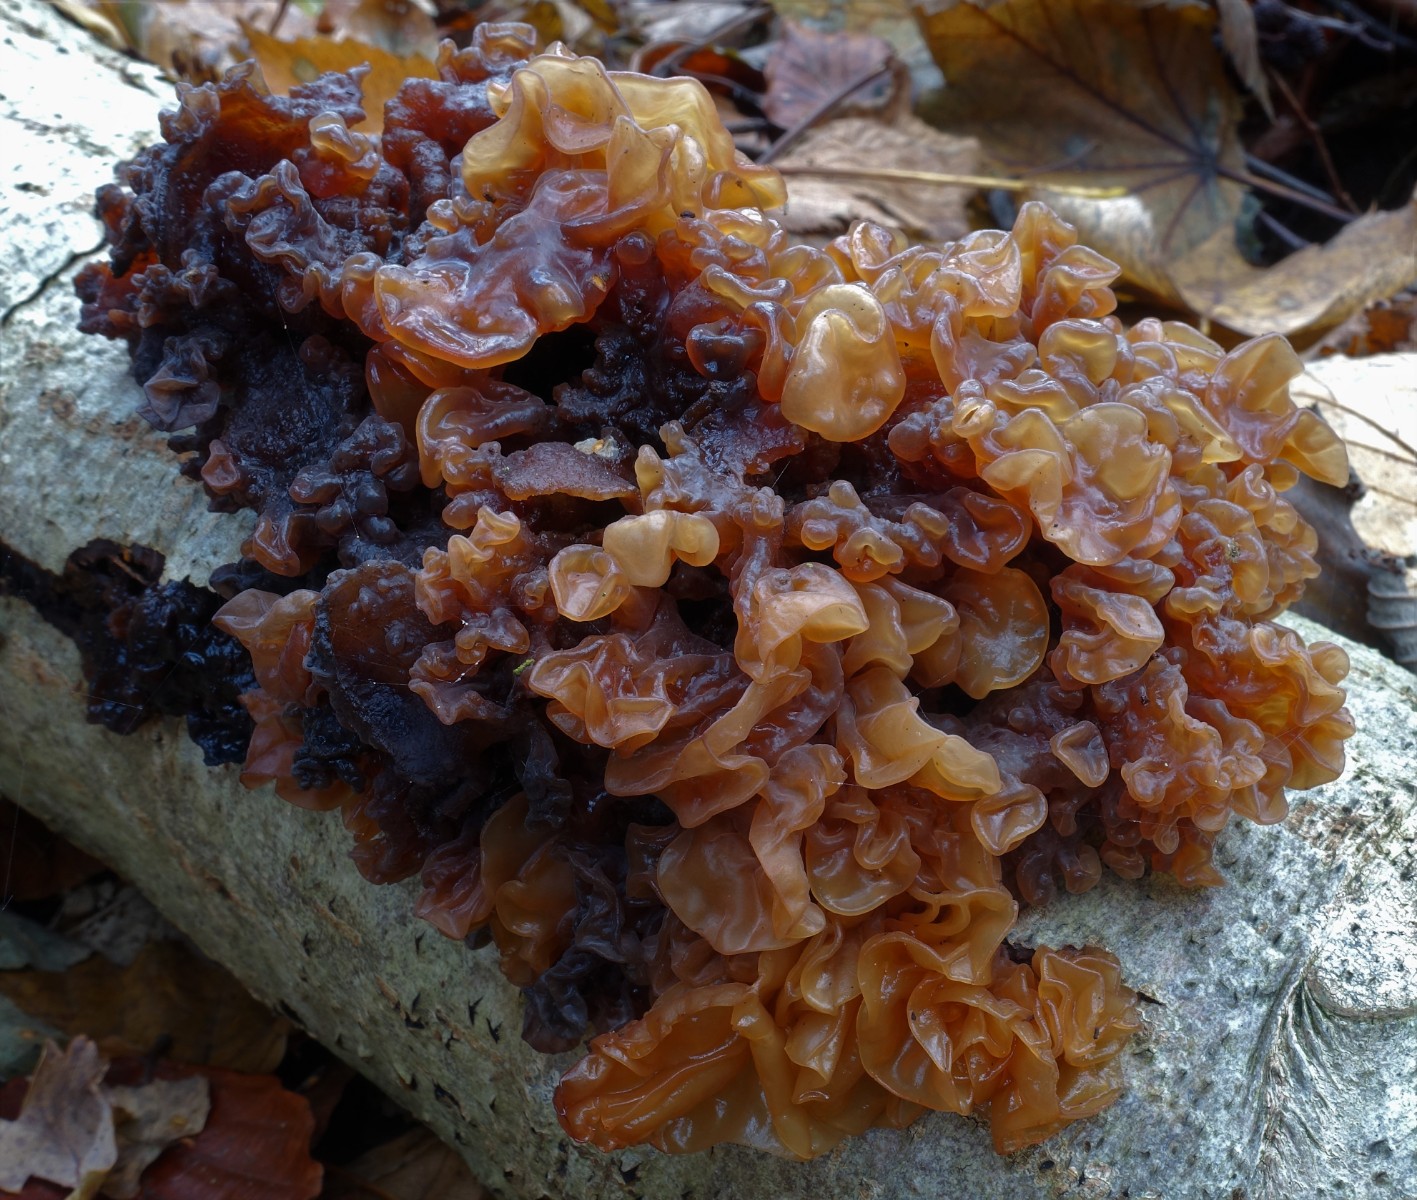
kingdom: Fungi
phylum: Basidiomycota
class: Tremellomycetes
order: Tremellales
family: Tremellaceae
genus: Phaeotremella
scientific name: Phaeotremella frondosa
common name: kæmpe-bævresvamp
